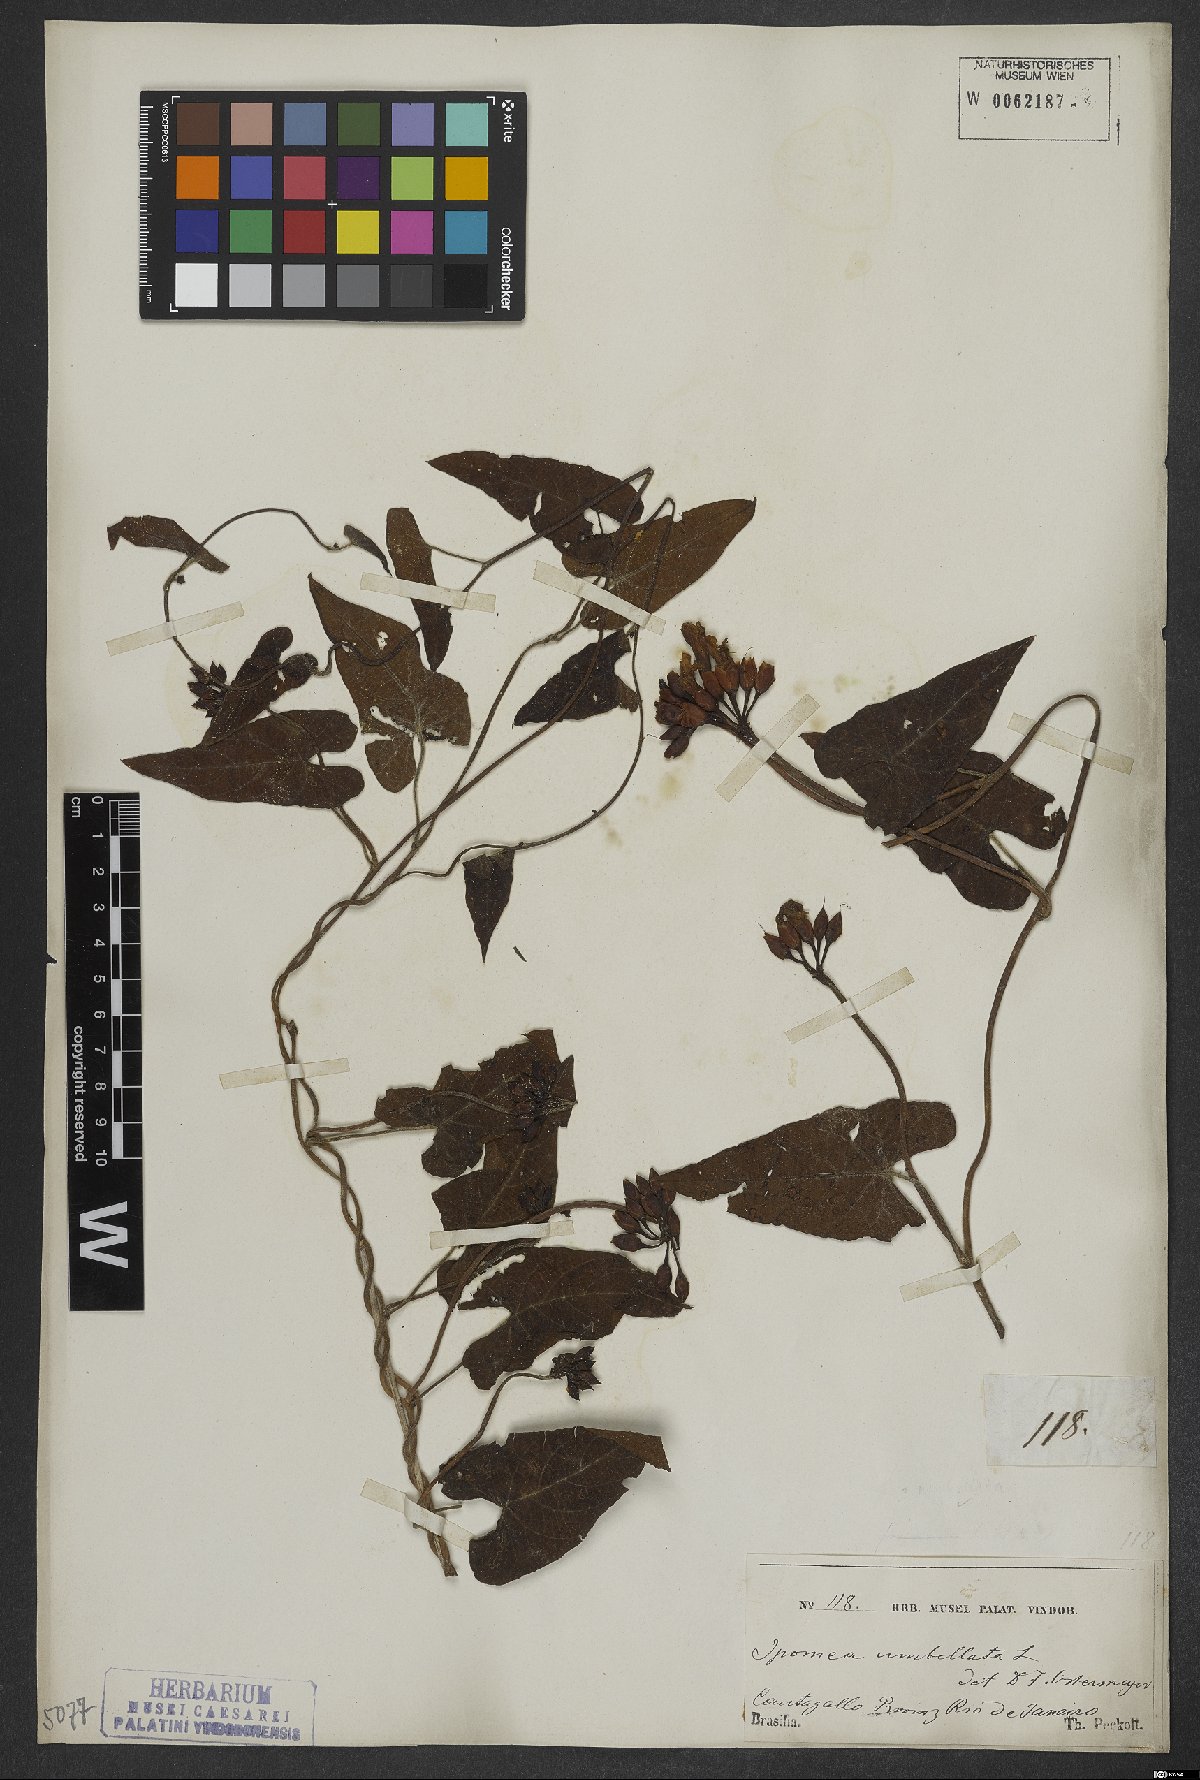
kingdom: Plantae
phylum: Tracheophyta
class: Magnoliopsida
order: Solanales
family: Convolvulaceae
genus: Ipomoea
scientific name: Ipomoea carolina
